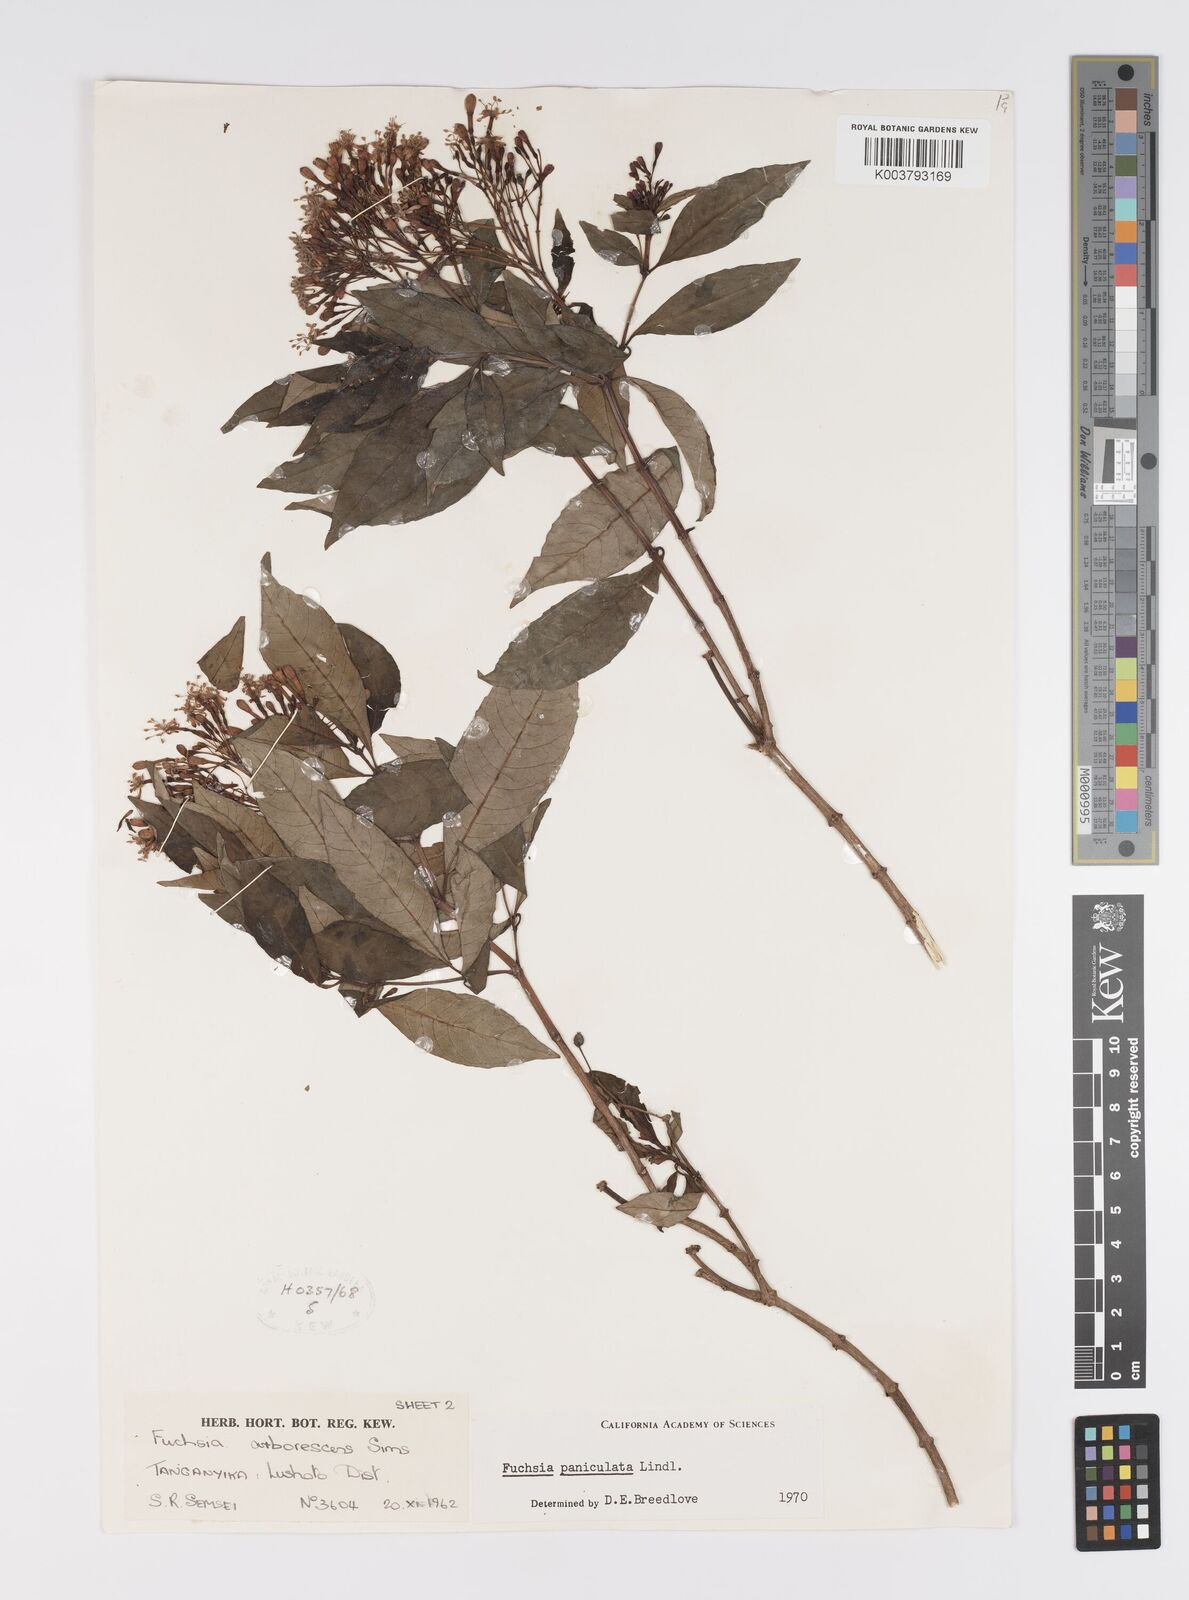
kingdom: Plantae
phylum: Tracheophyta
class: Magnoliopsida
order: Myrtales
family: Onagraceae
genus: Fuchsia
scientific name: Fuchsia paniculata
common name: Shrubby fuchsia
